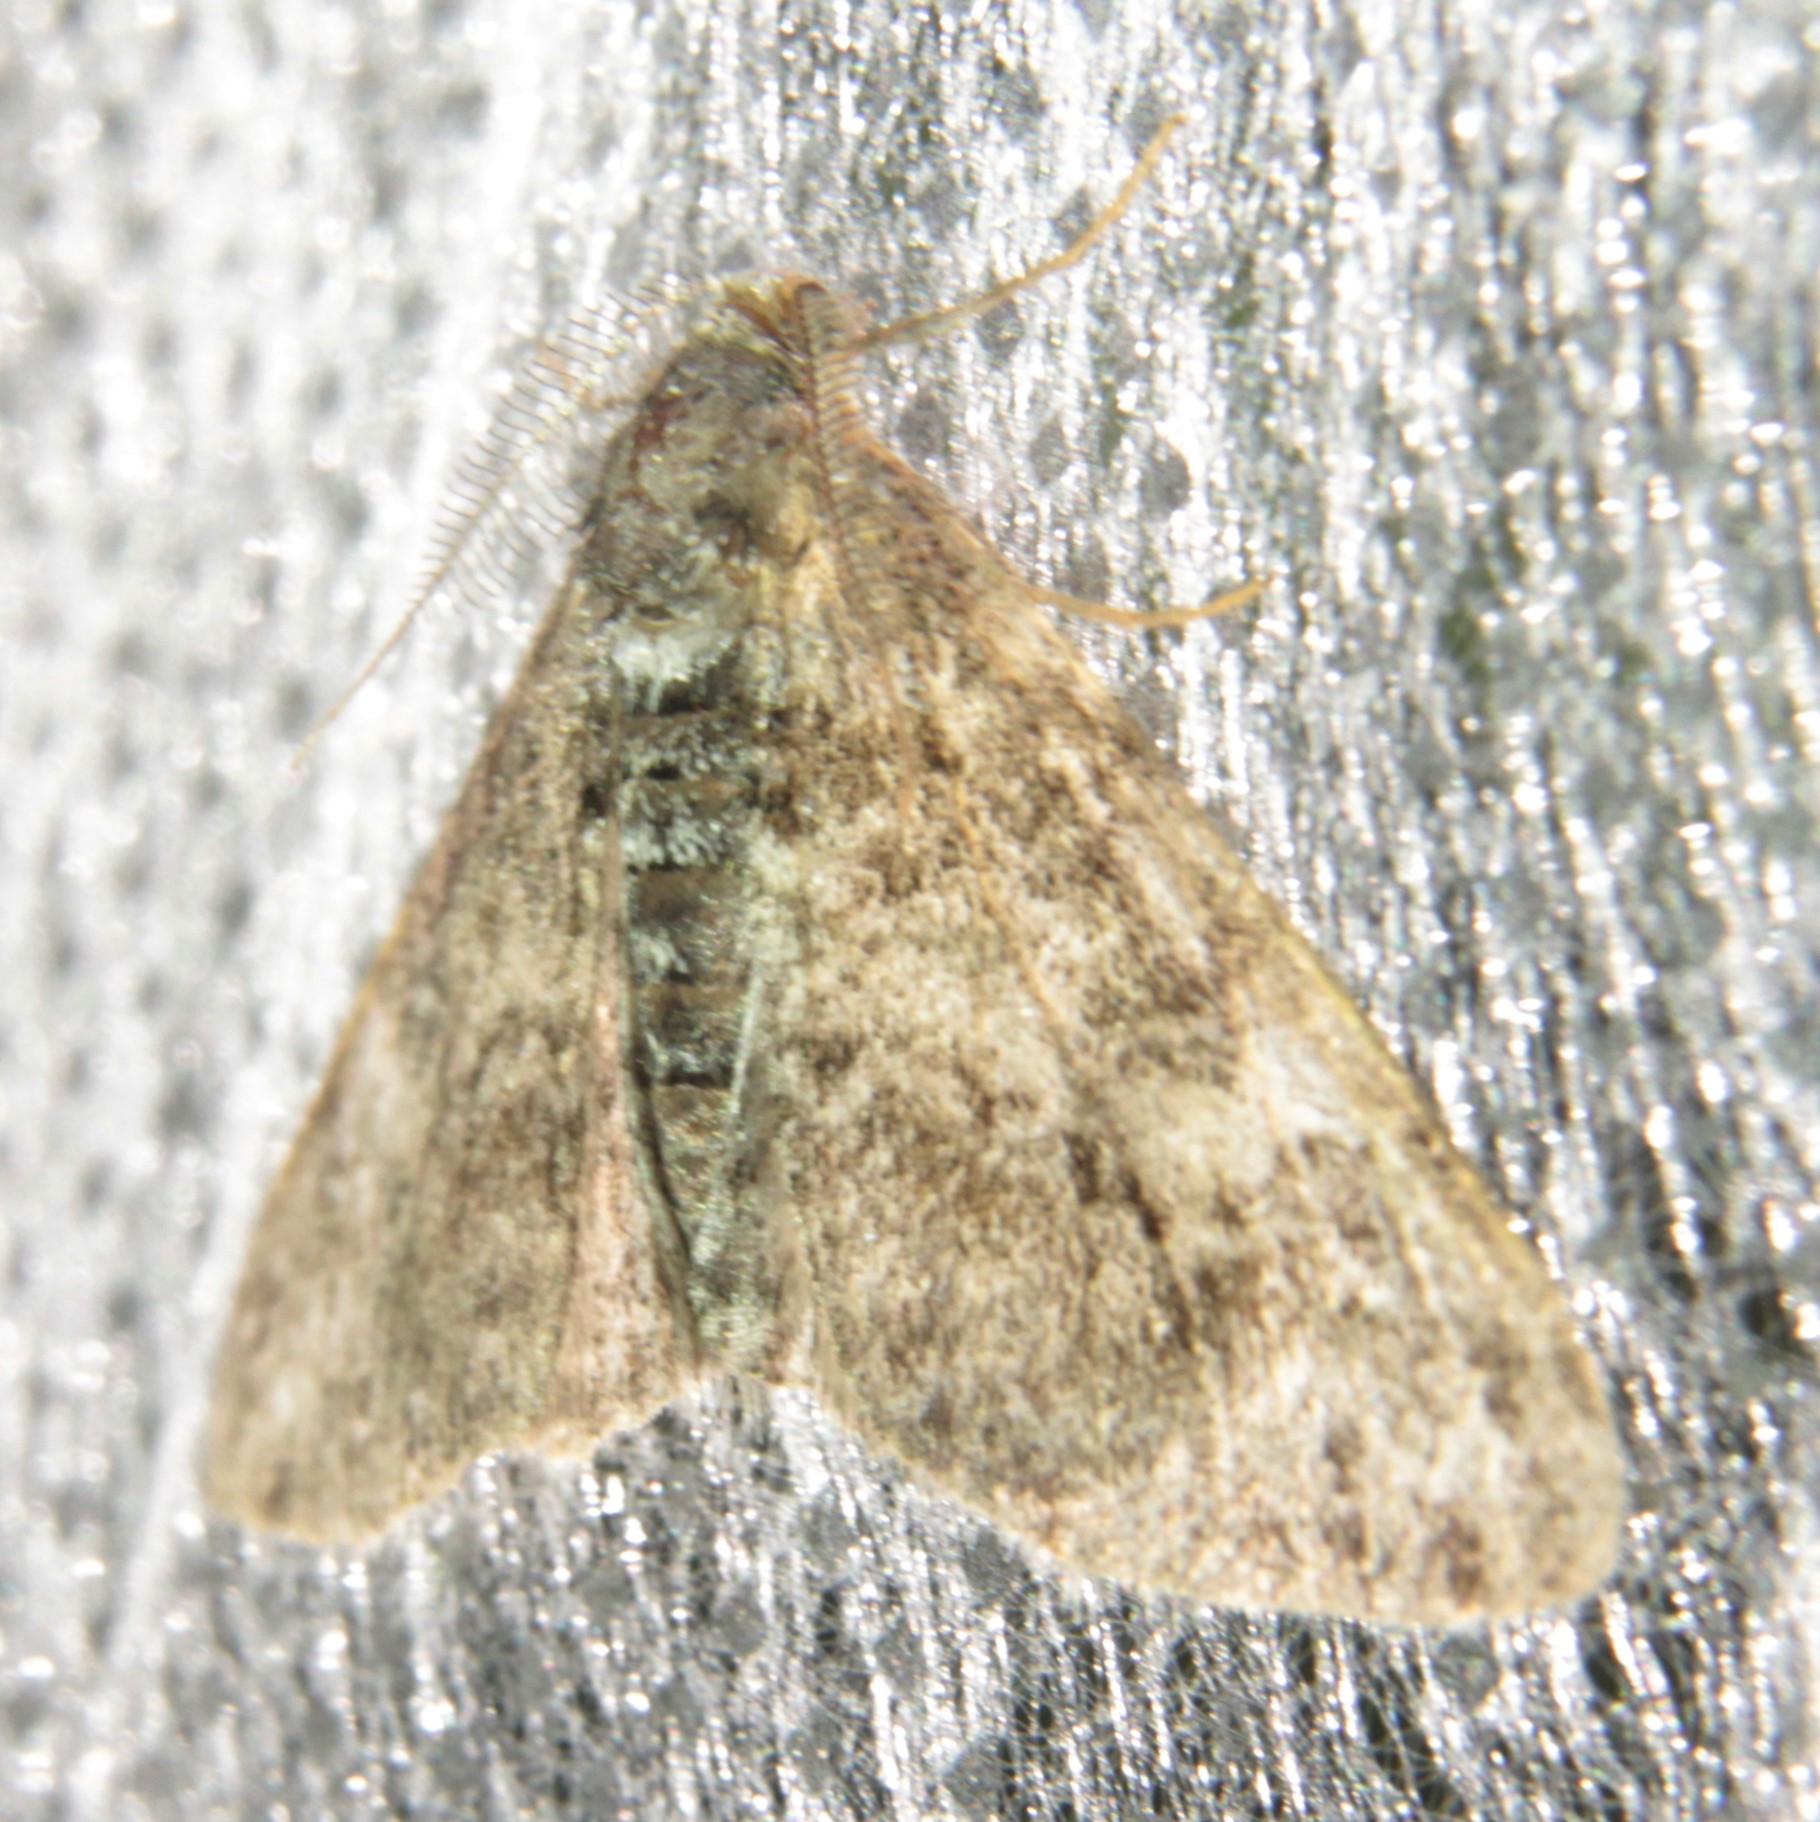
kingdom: Animalia
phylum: Arthropoda
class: Insecta
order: Lepidoptera
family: Geometridae
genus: Cleora
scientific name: Cleora cinctaria
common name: Ringed carpet
